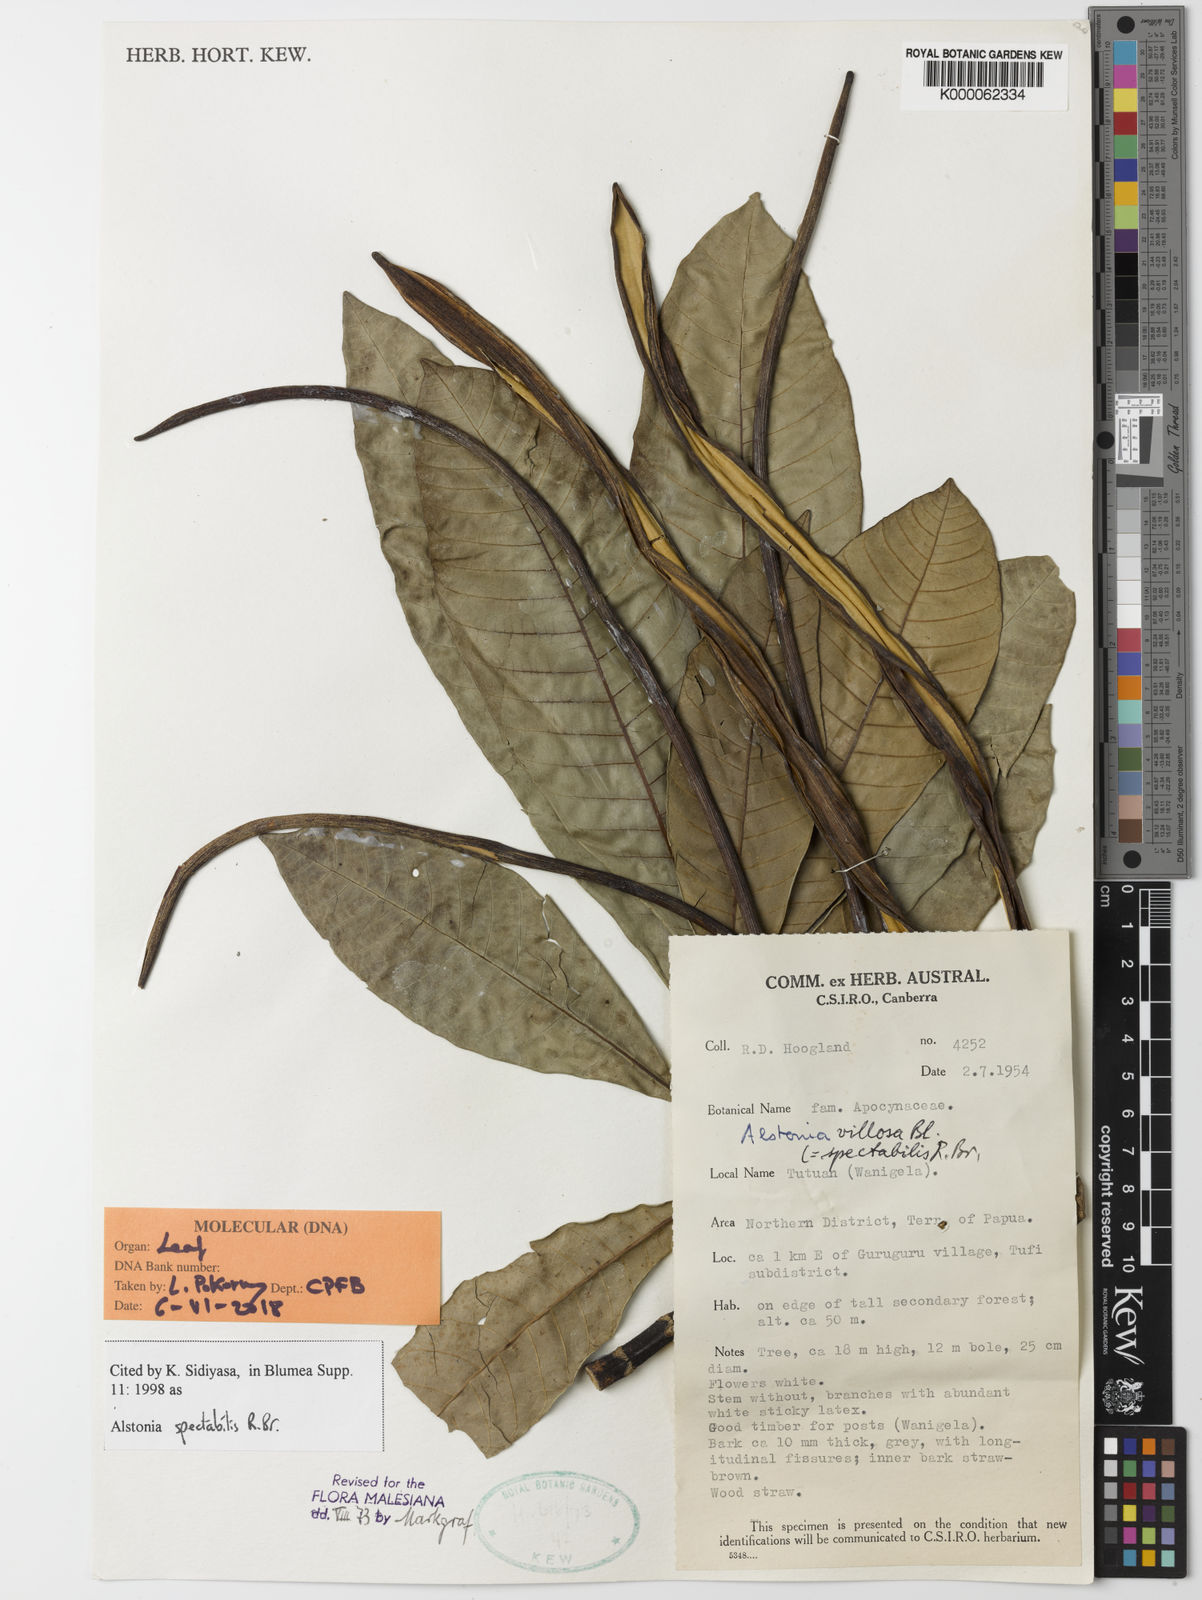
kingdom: Plantae
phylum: Tracheophyta
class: Magnoliopsida
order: Gentianales
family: Apocynaceae
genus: Alstonia
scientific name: Alstonia spectabilis
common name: Milky yellowwood
